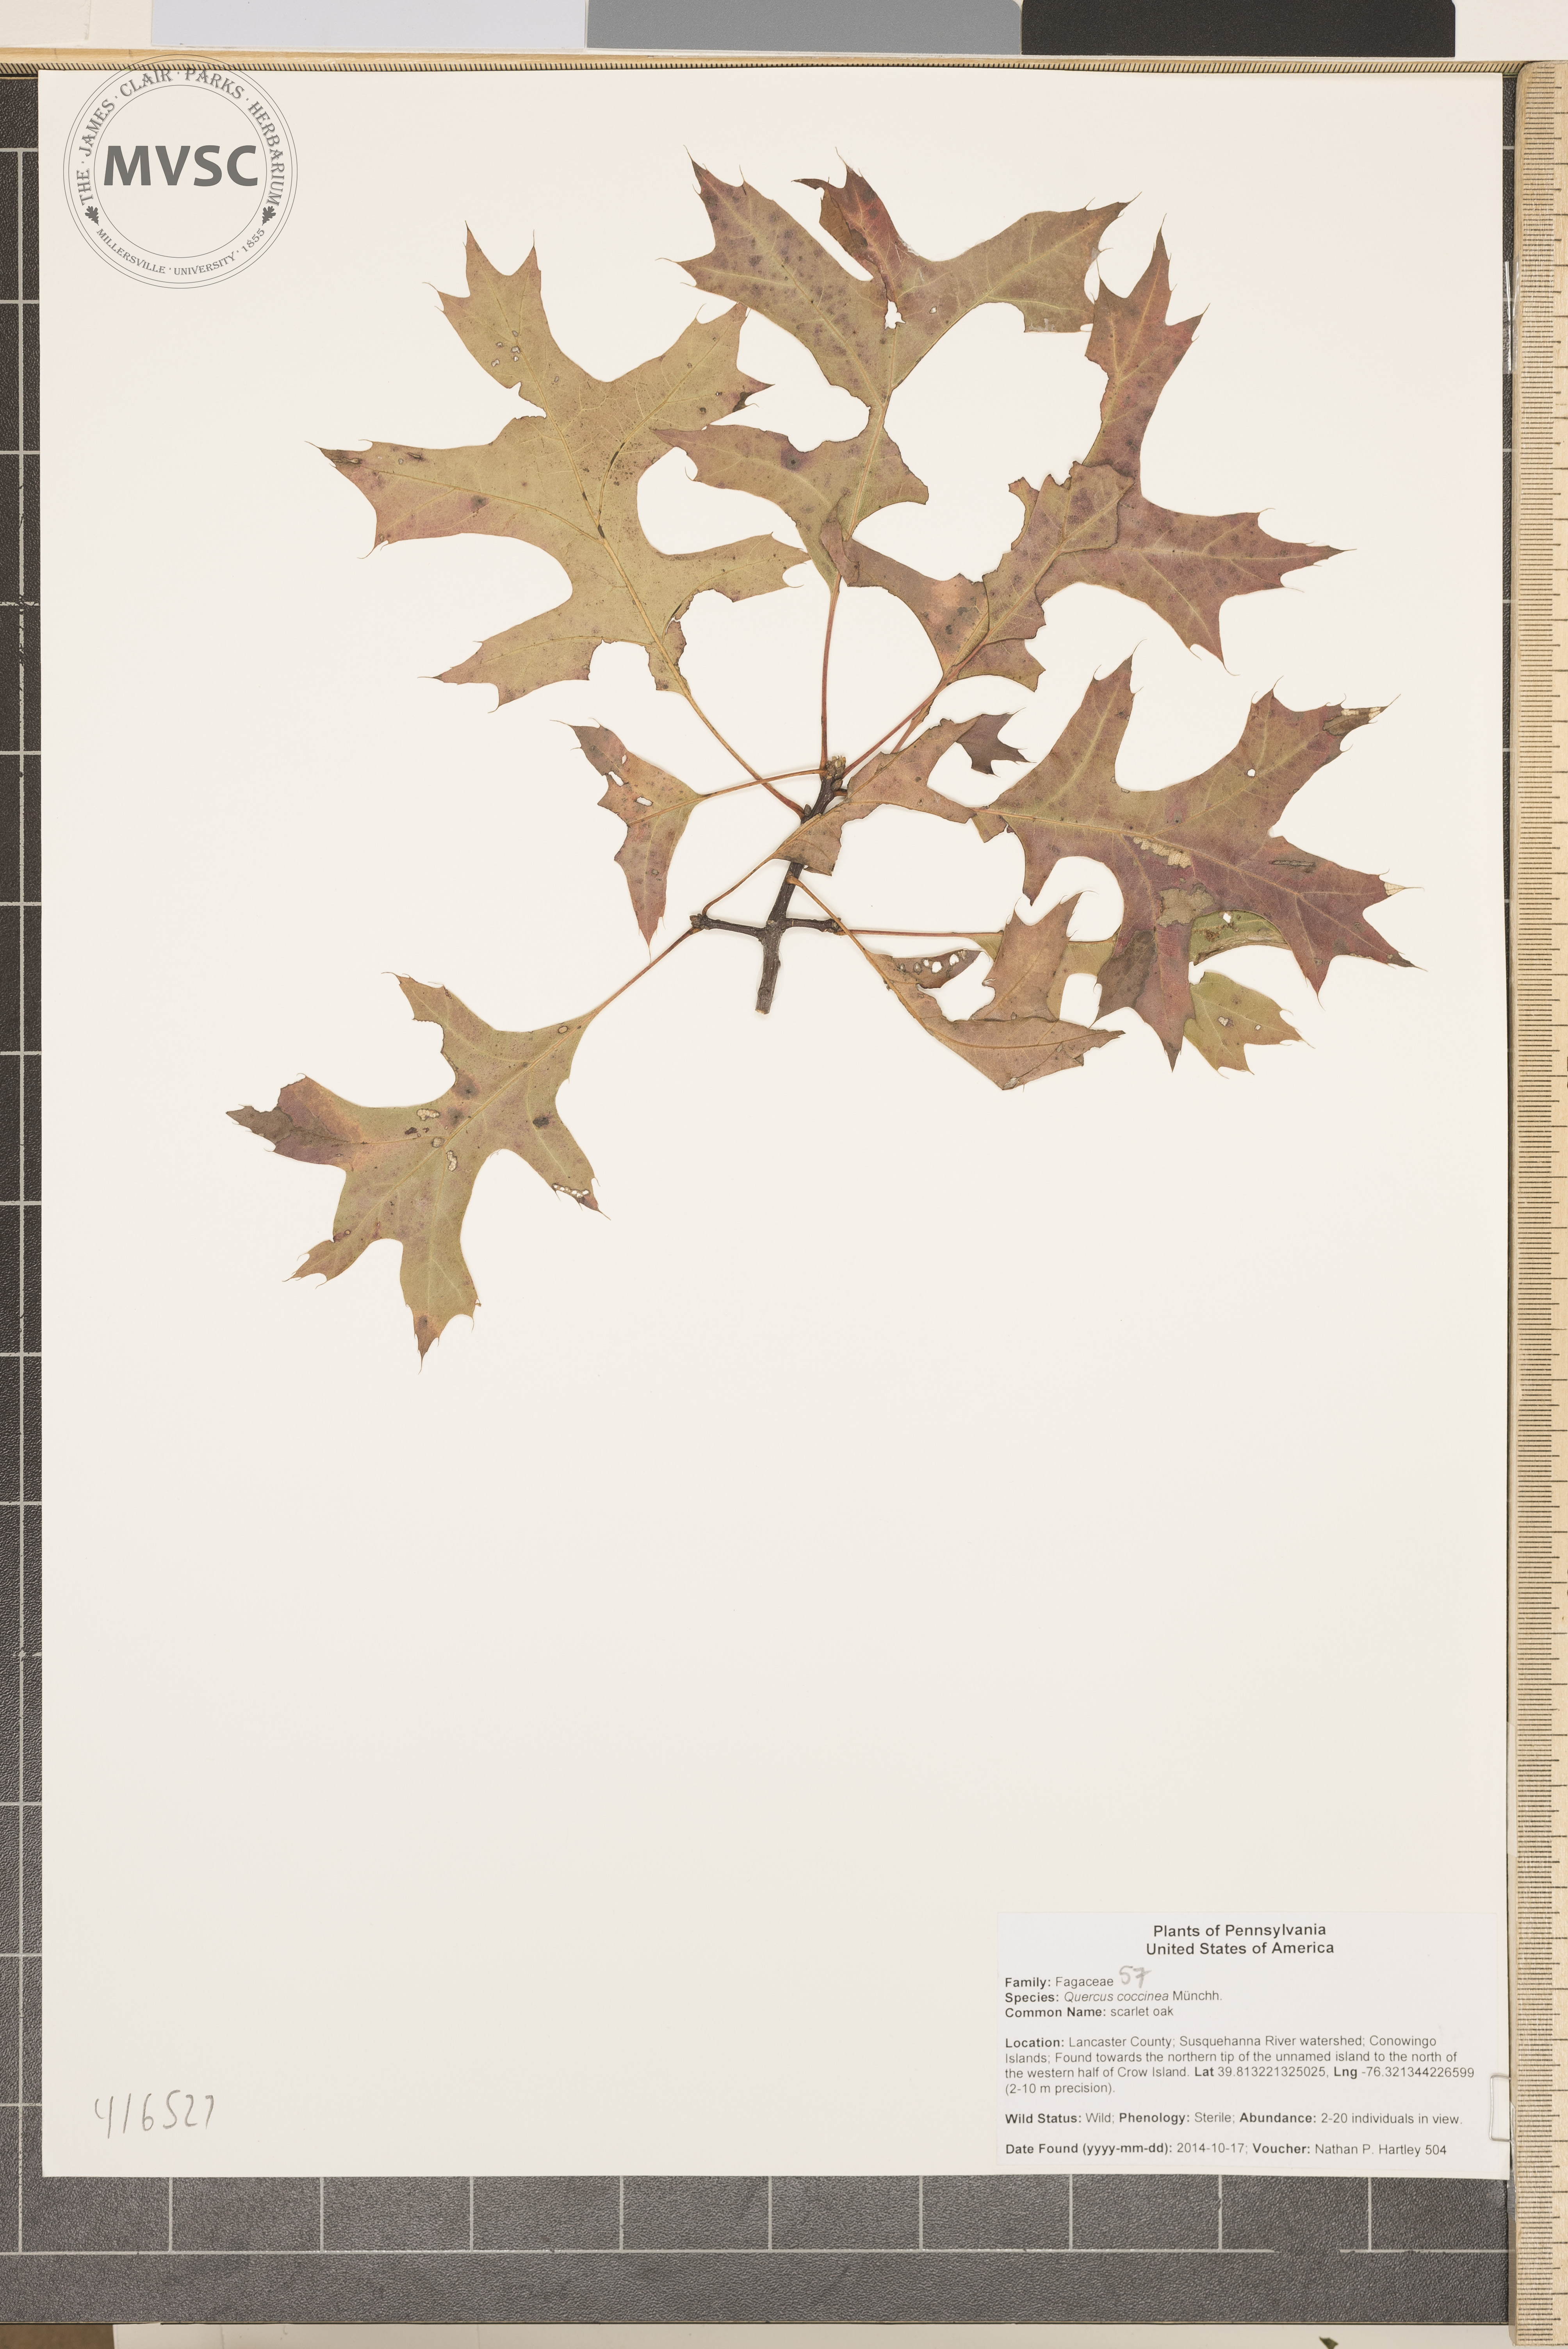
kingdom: Plantae
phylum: Tracheophyta
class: Magnoliopsida
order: Fagales
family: Fagaceae
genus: Quercus
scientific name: Quercus coccinea
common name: scarlet oak
